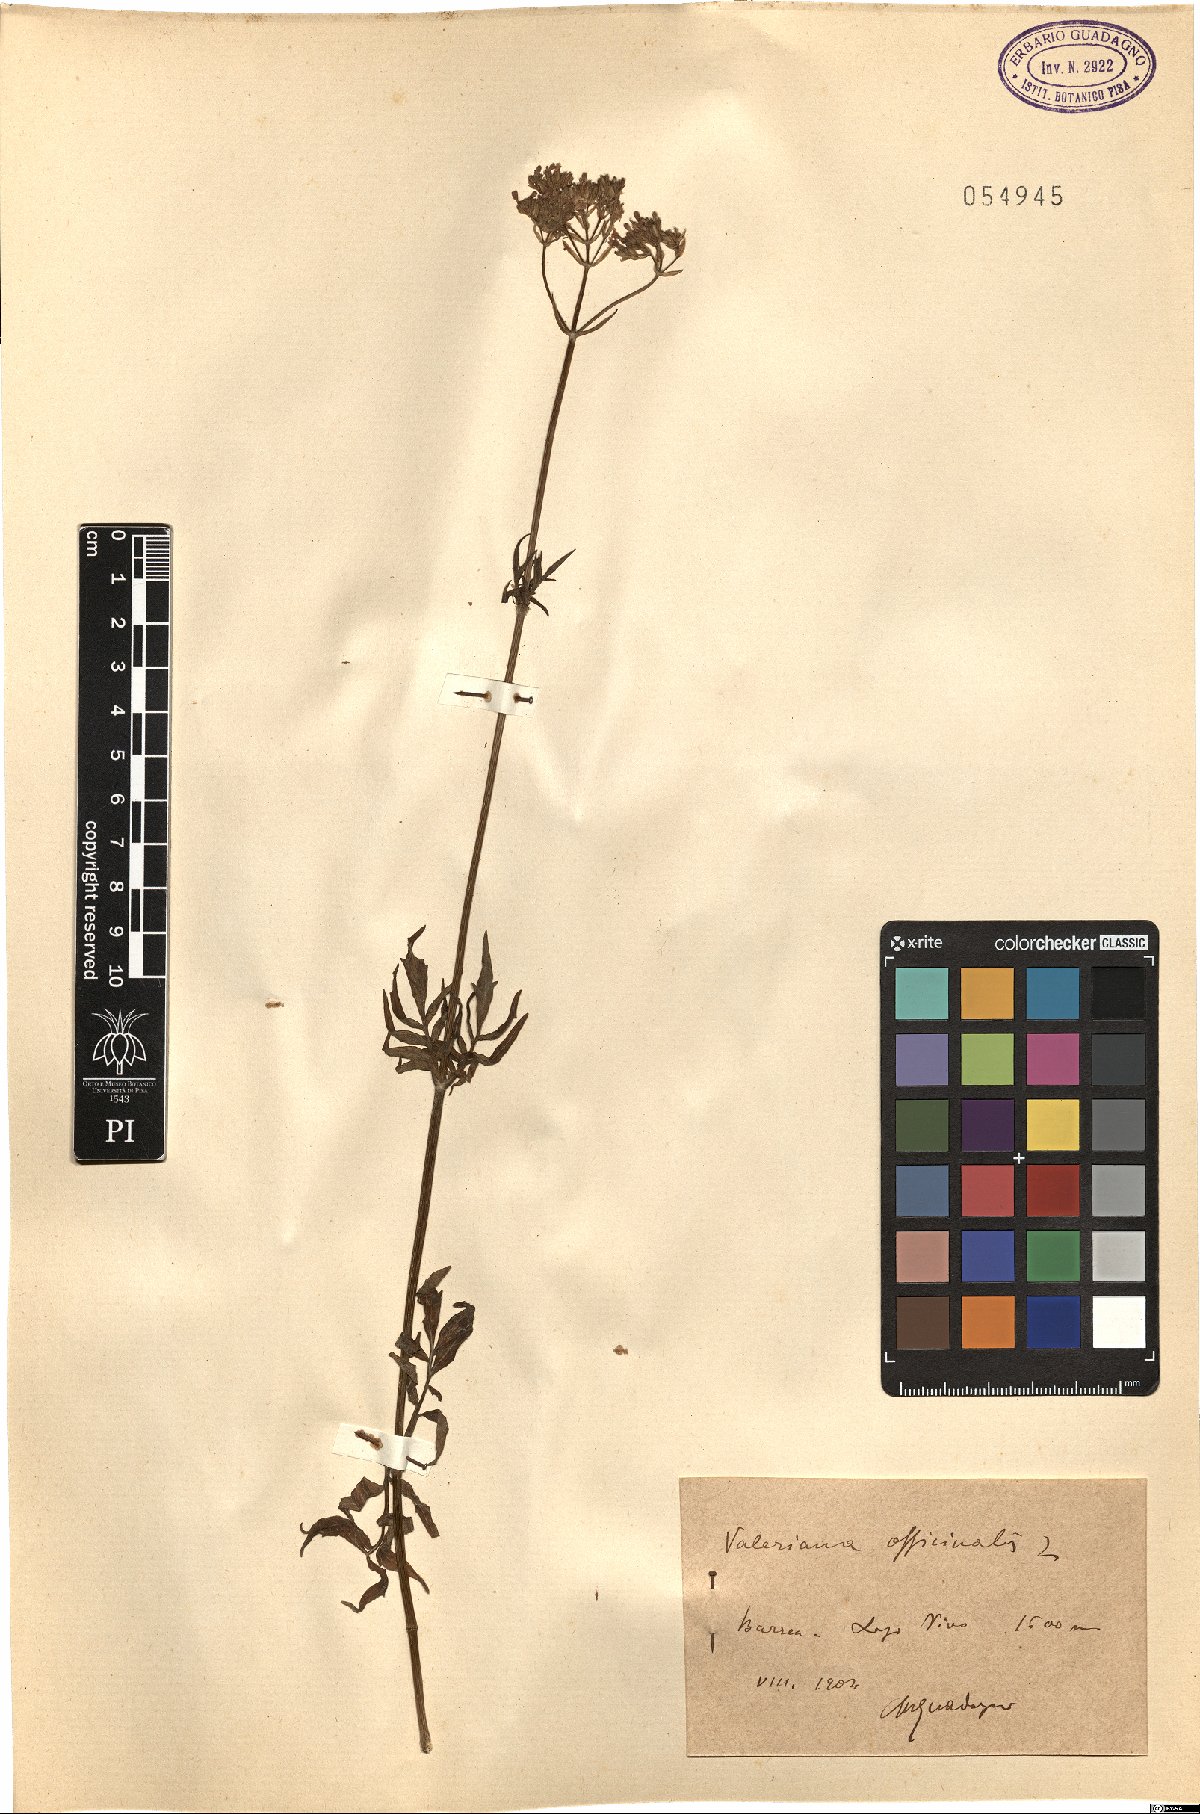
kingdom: Plantae
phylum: Tracheophyta
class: Magnoliopsida
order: Dipsacales
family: Caprifoliaceae
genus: Valeriana
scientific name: Valeriana officinalis
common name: Common valerian
